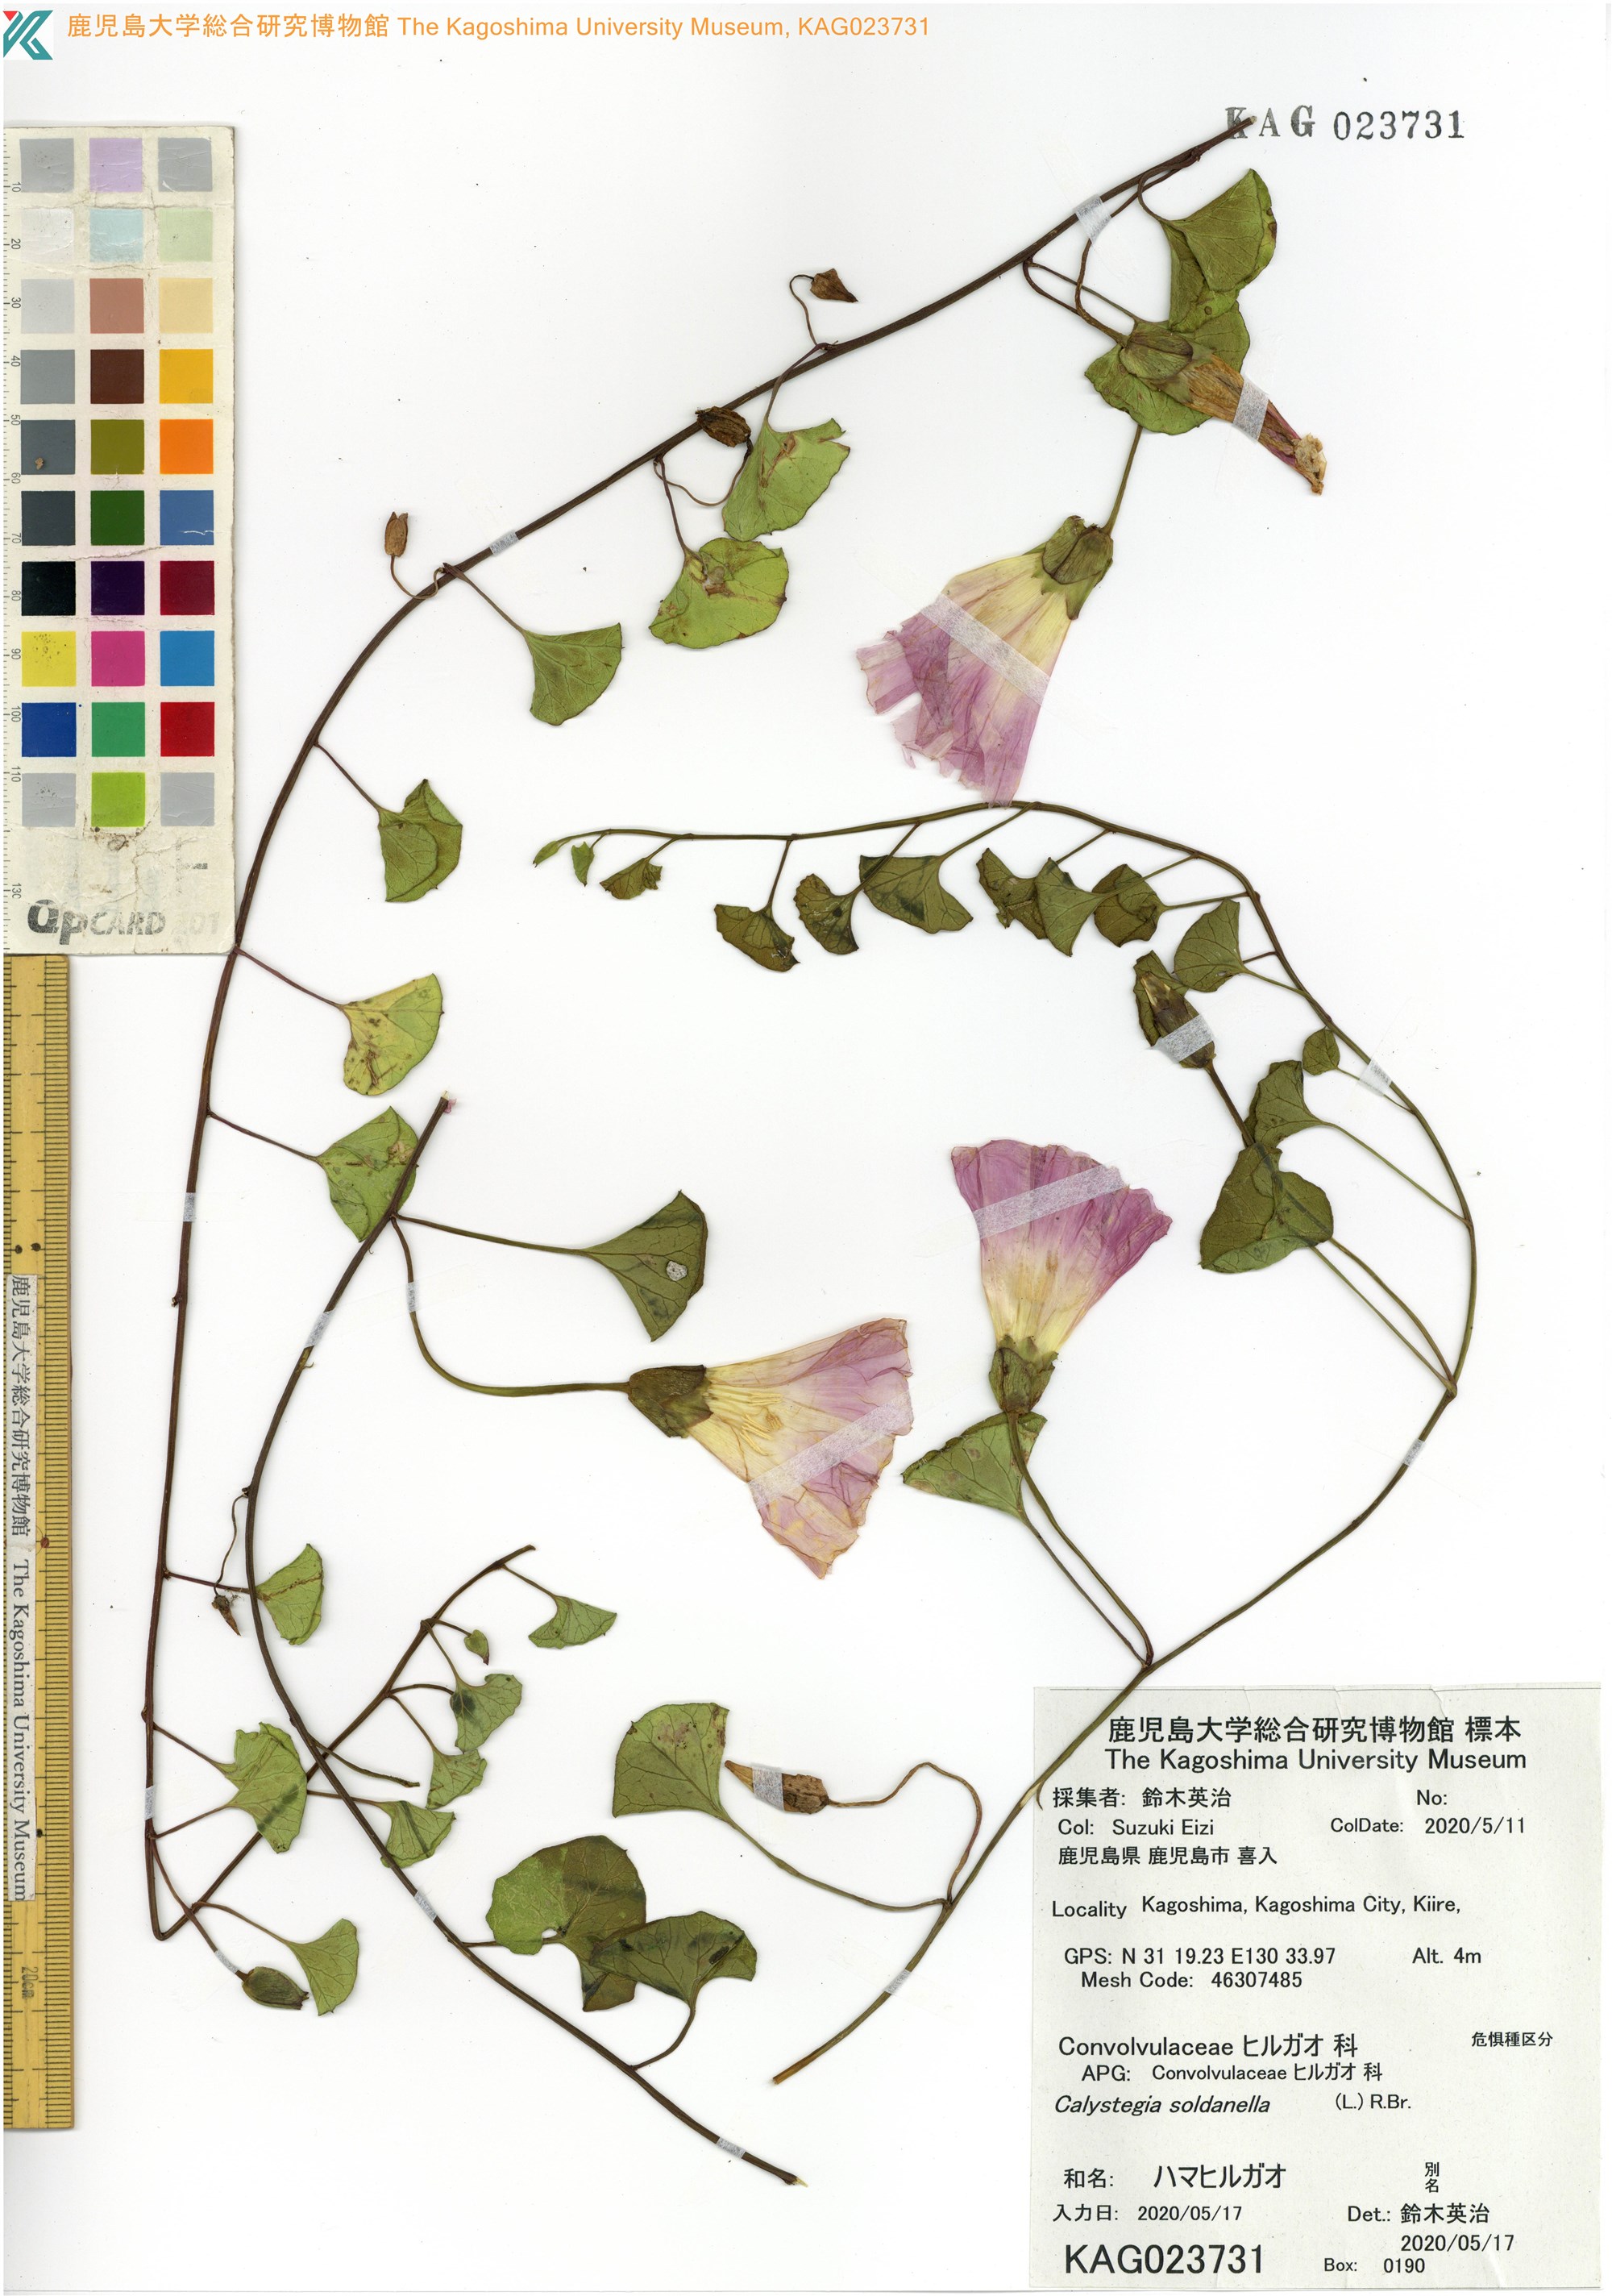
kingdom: Plantae
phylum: Tracheophyta
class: Magnoliopsida
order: Solanales
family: Convolvulaceae
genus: Calystegia
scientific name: Calystegia soldanella
